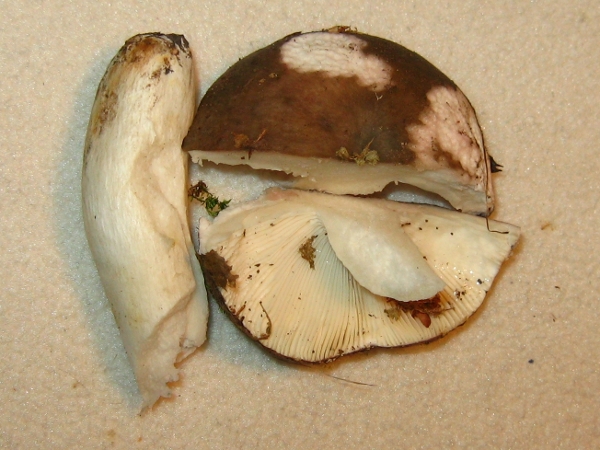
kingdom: Fungi
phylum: Basidiomycota
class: Agaricomycetes
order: Russulales
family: Russulaceae
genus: Russula
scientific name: Russula cyanoxantha
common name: broget skørhat
